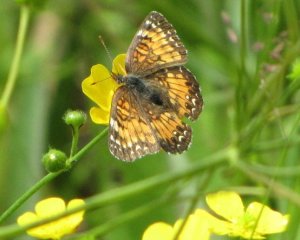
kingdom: Animalia
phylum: Arthropoda
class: Insecta
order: Lepidoptera
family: Nymphalidae
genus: Phyciodes
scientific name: Phyciodes tharos
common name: Northern Crescent
